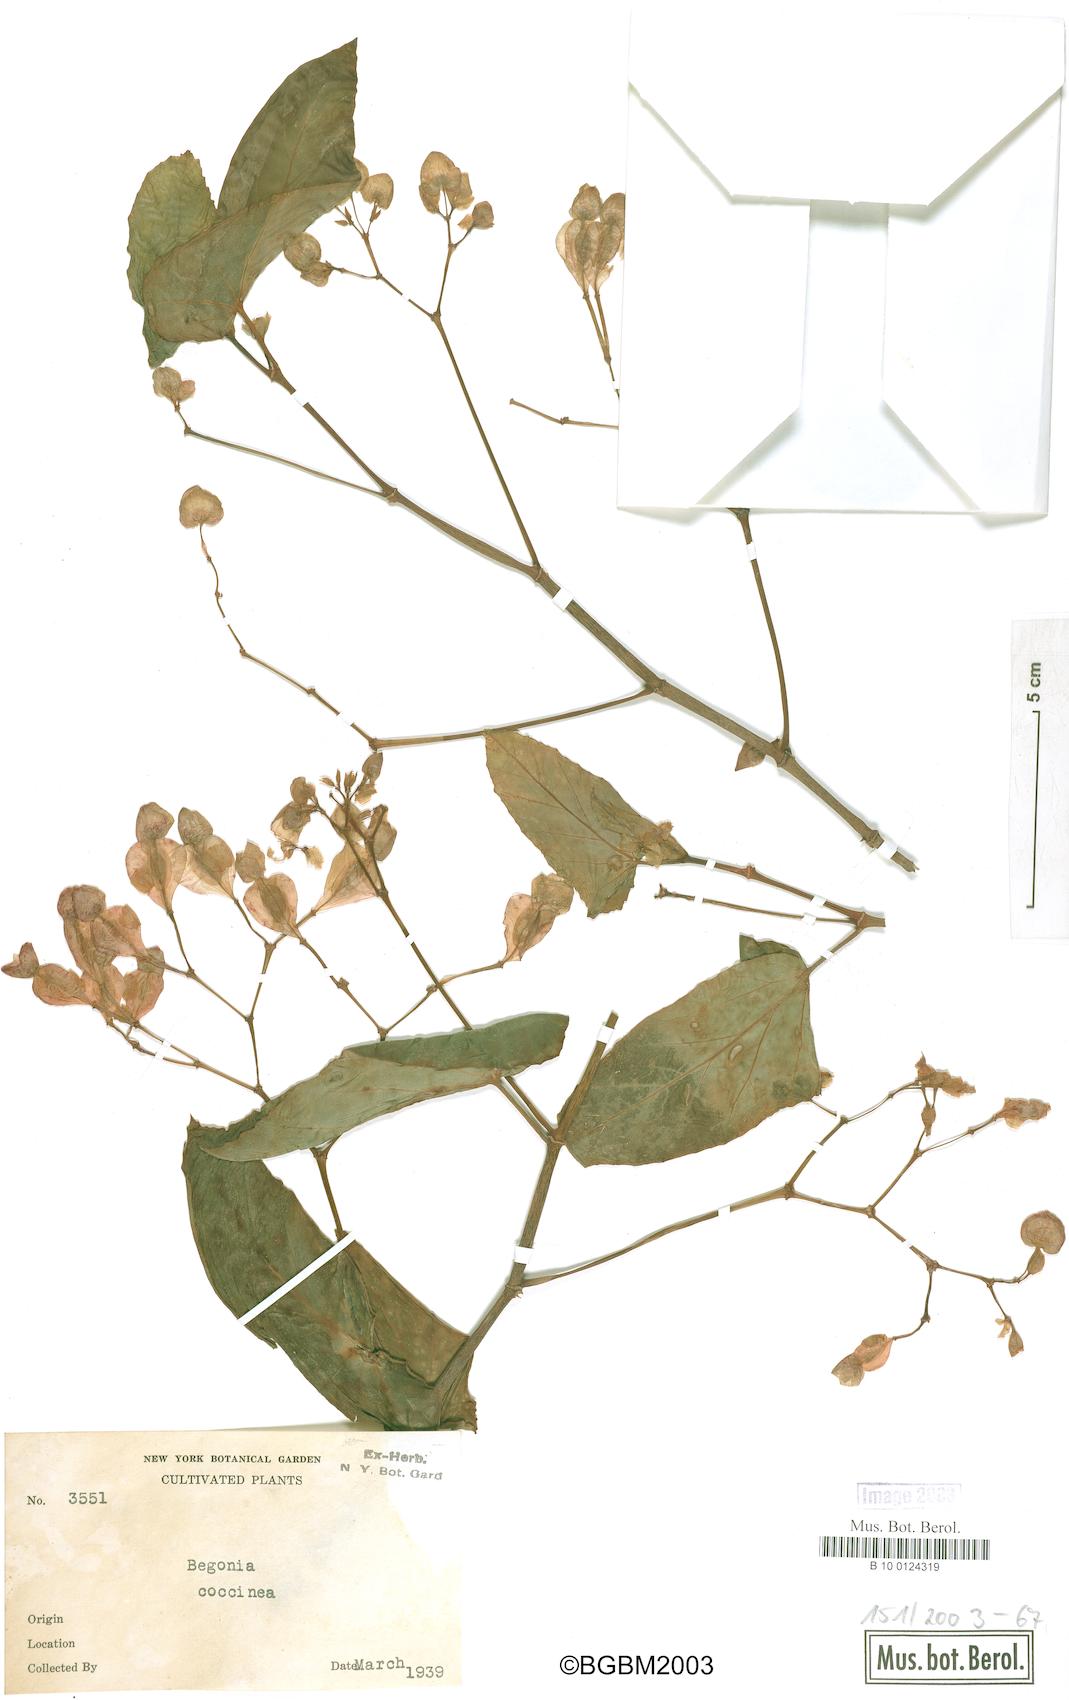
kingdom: Plantae
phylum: Tracheophyta
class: Magnoliopsida
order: Cucurbitales
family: Begoniaceae
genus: Begonia
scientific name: Begonia coccinea
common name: Angel-wing begonia
